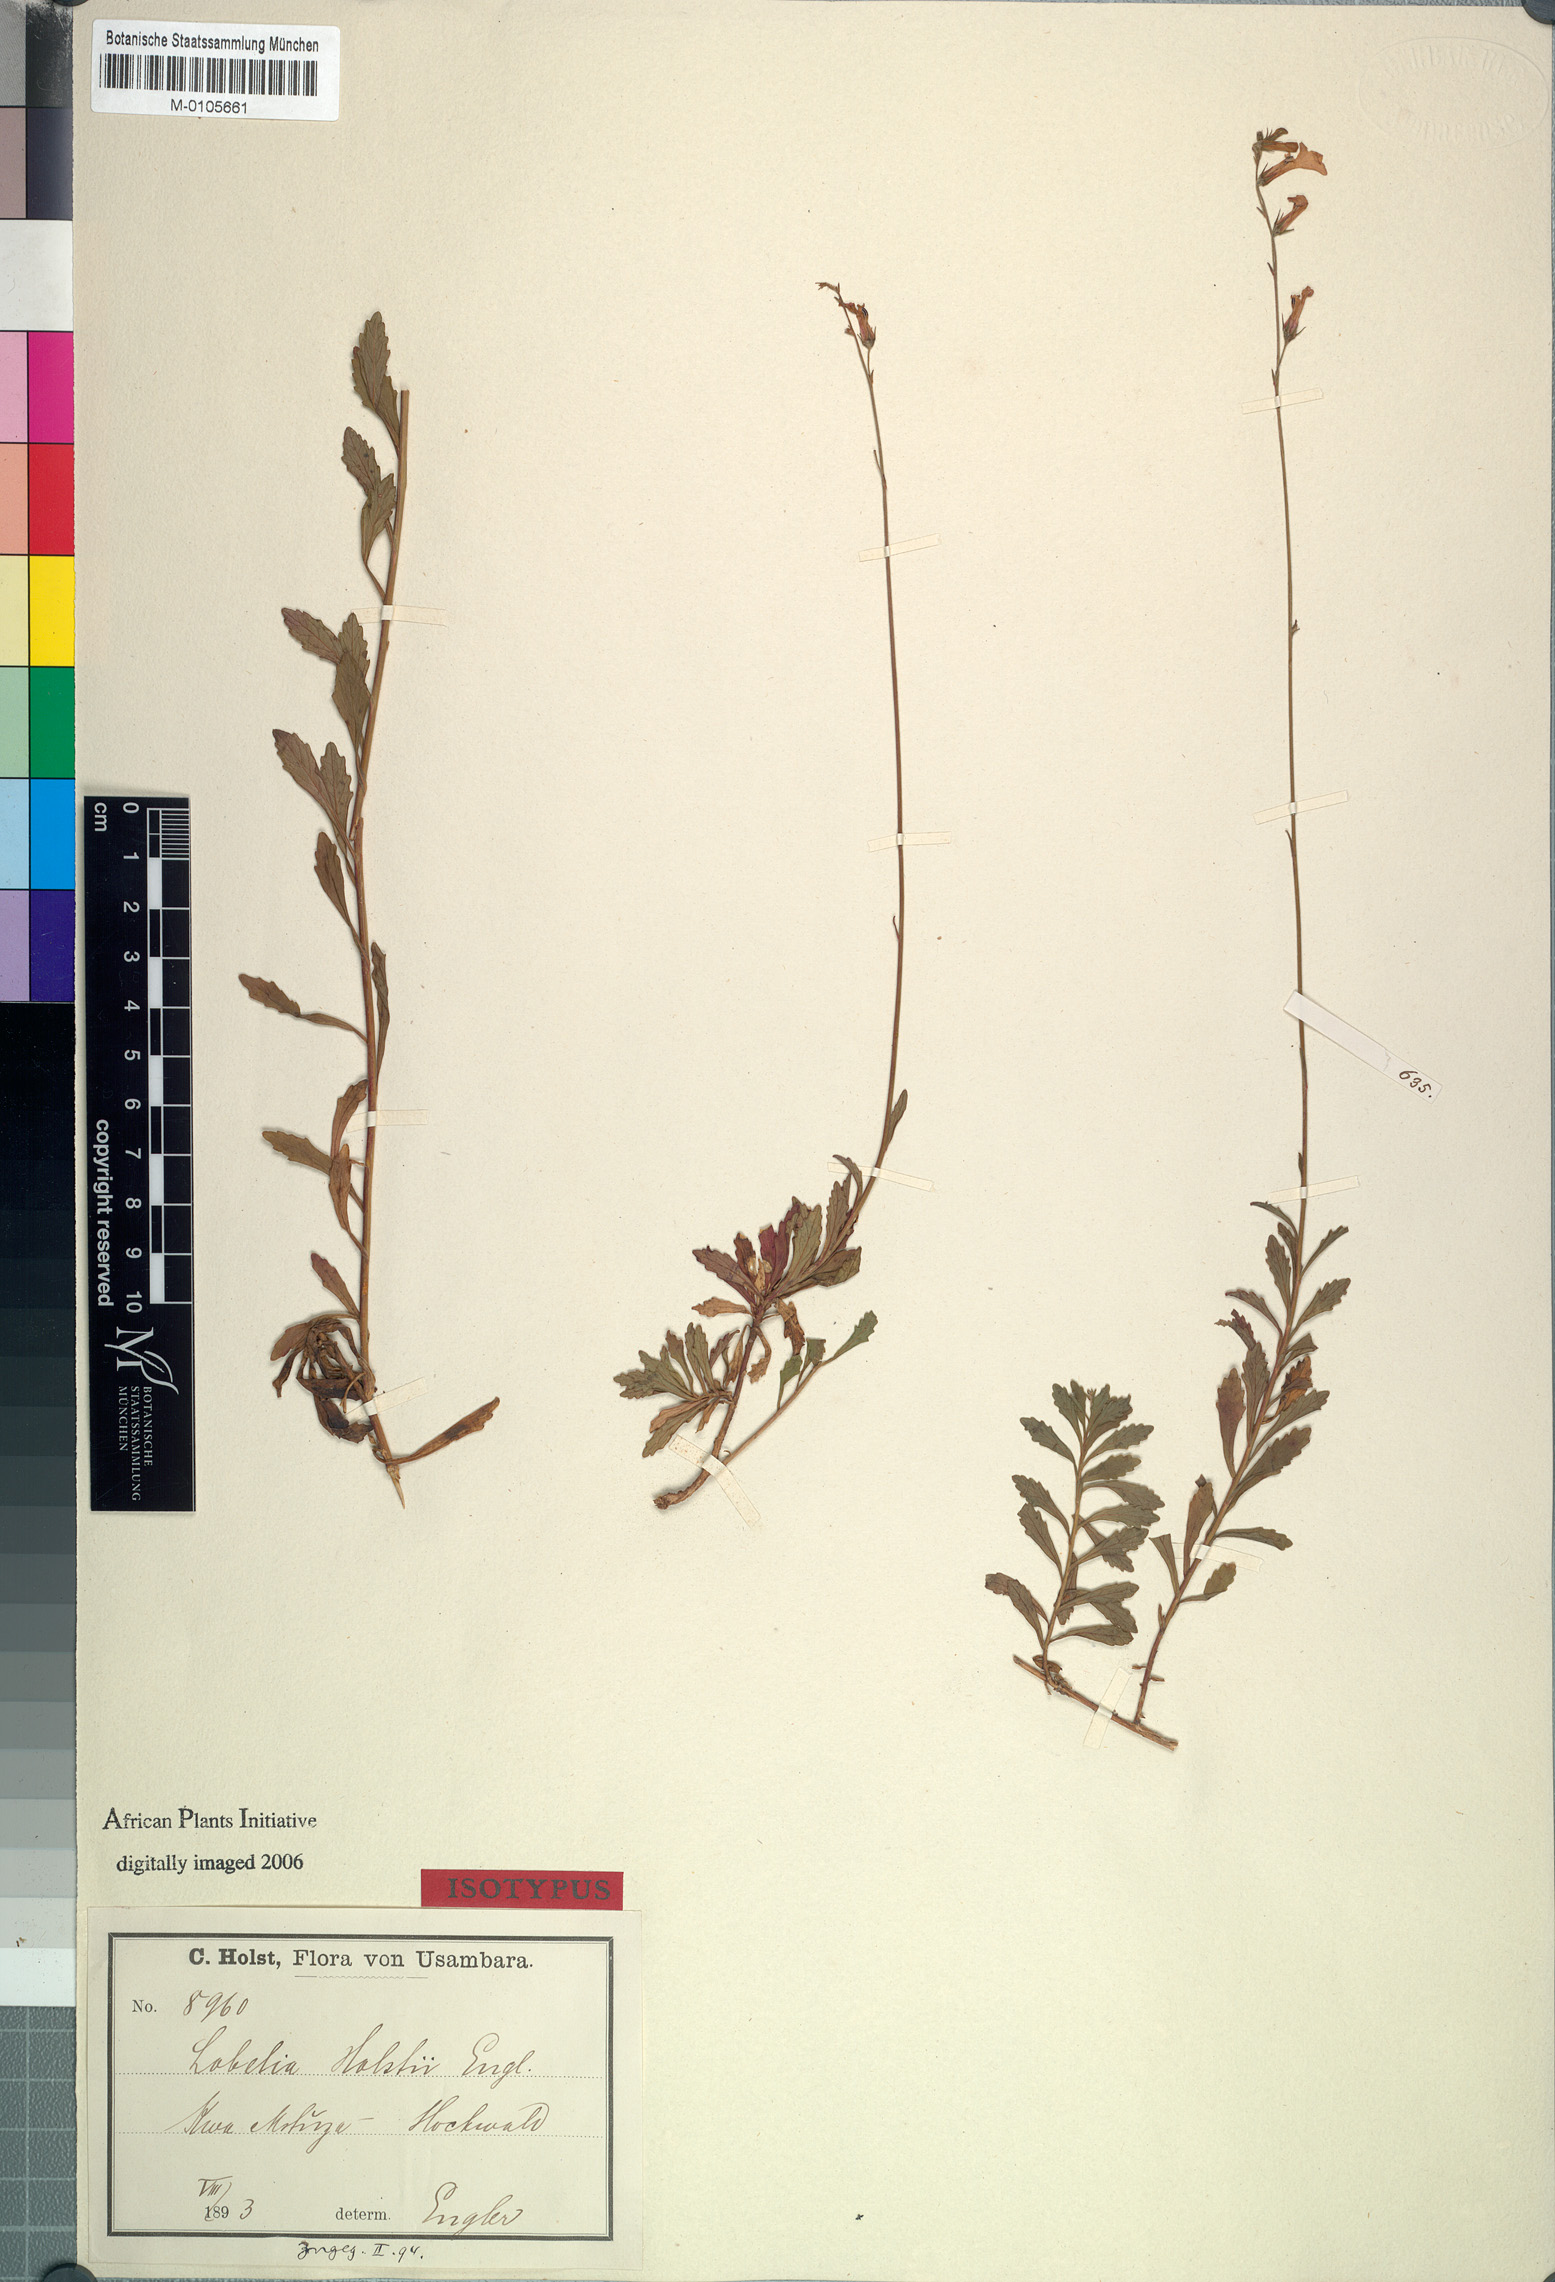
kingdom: Plantae
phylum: Tracheophyta
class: Magnoliopsida
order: Asterales
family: Campanulaceae
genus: Lobelia
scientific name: Lobelia holstii
